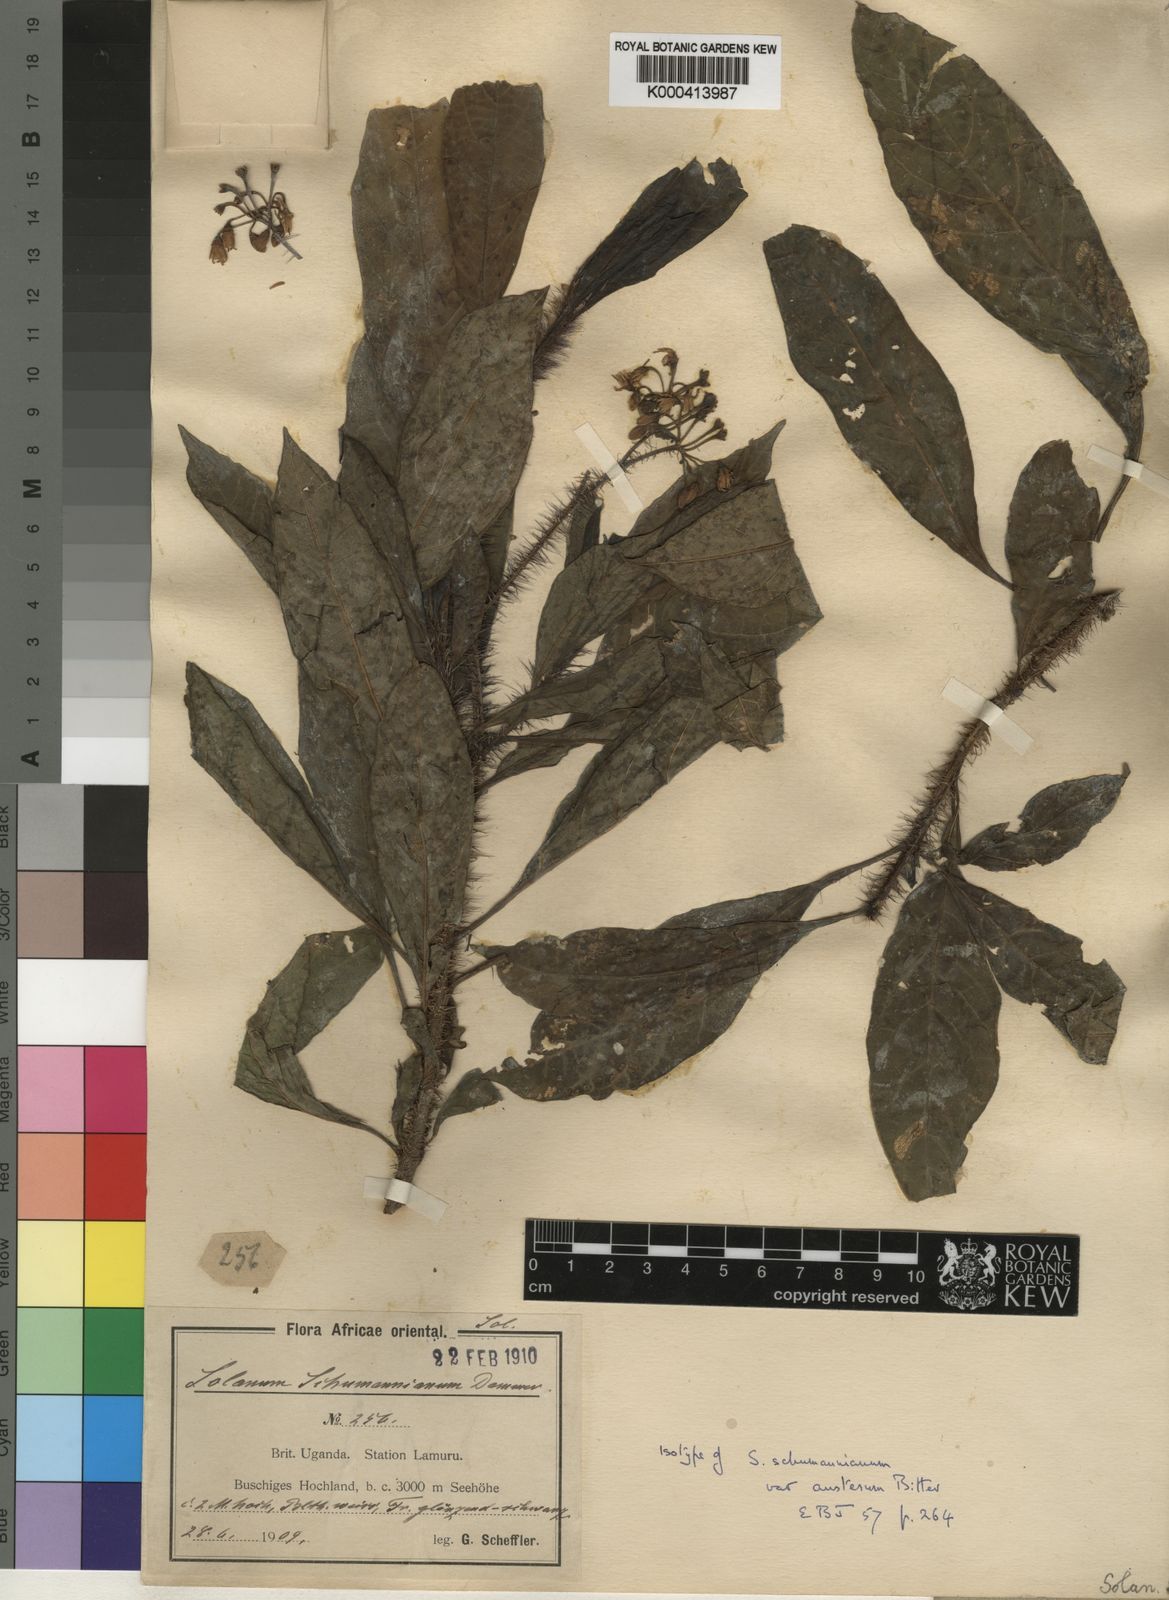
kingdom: Plantae
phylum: Tracheophyta
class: Magnoliopsida
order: Solanales
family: Solanaceae
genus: Solanum
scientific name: Solanum schumannianum
